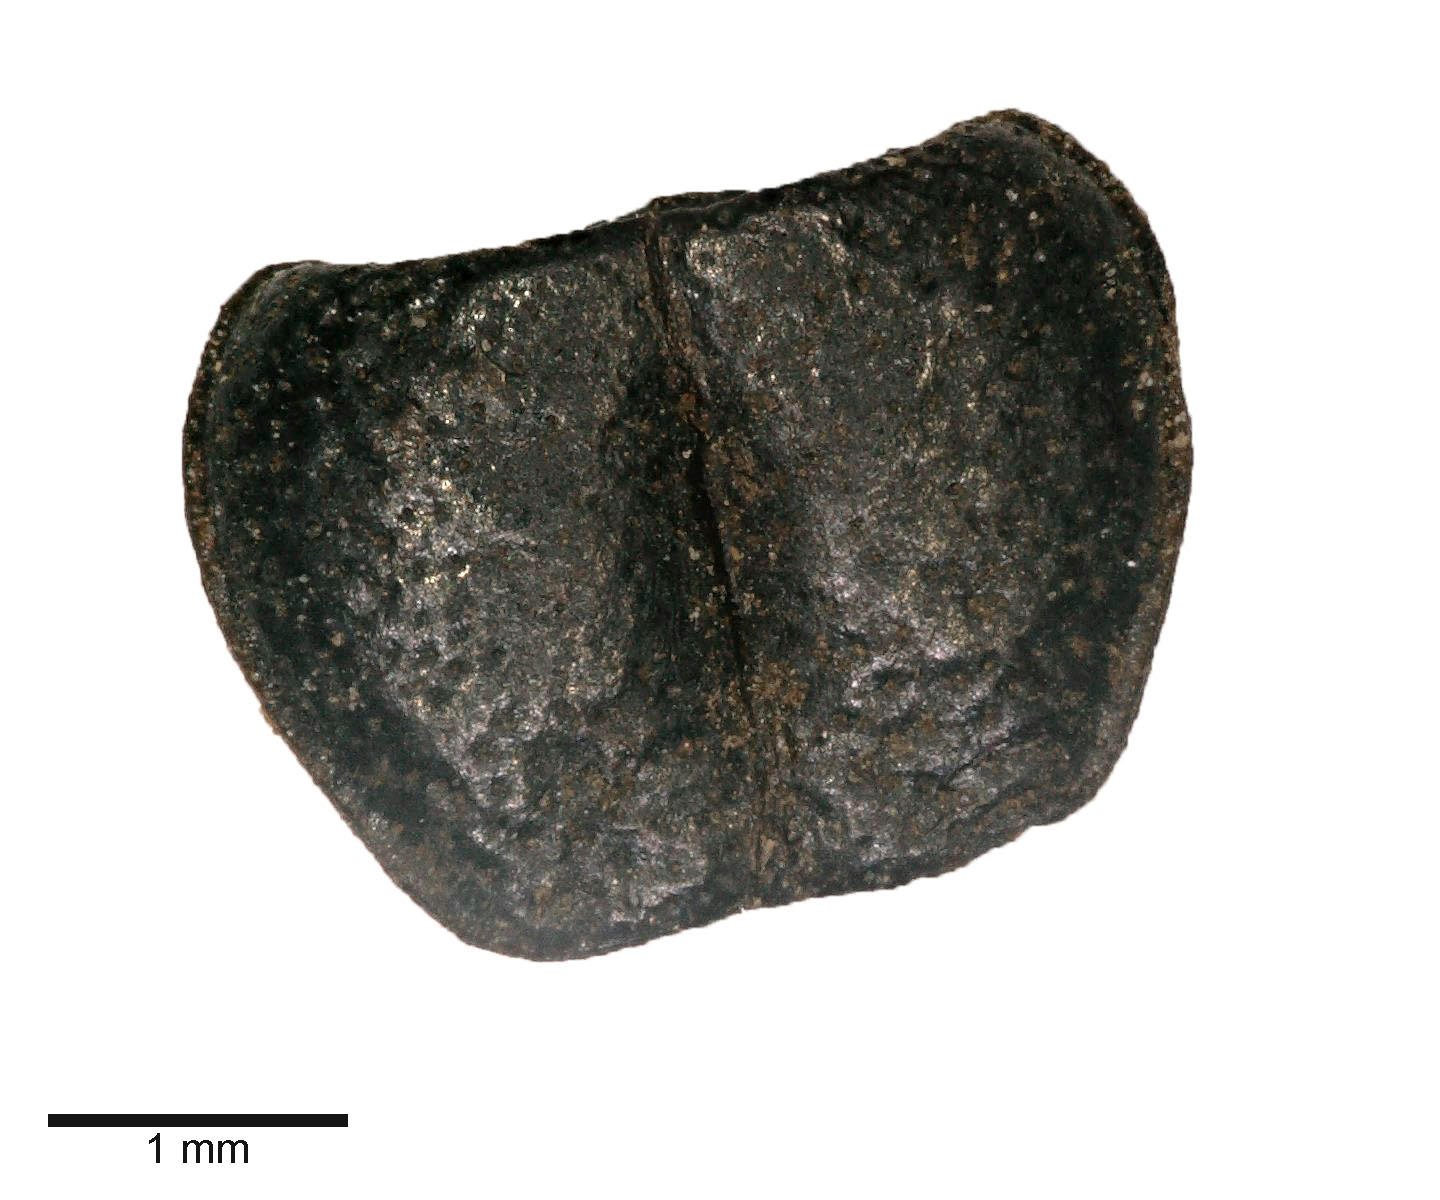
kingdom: Animalia
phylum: Arthropoda
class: Insecta
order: Coleoptera
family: Carabidae
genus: Dicheirus
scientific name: Dicheirus dilatatus
